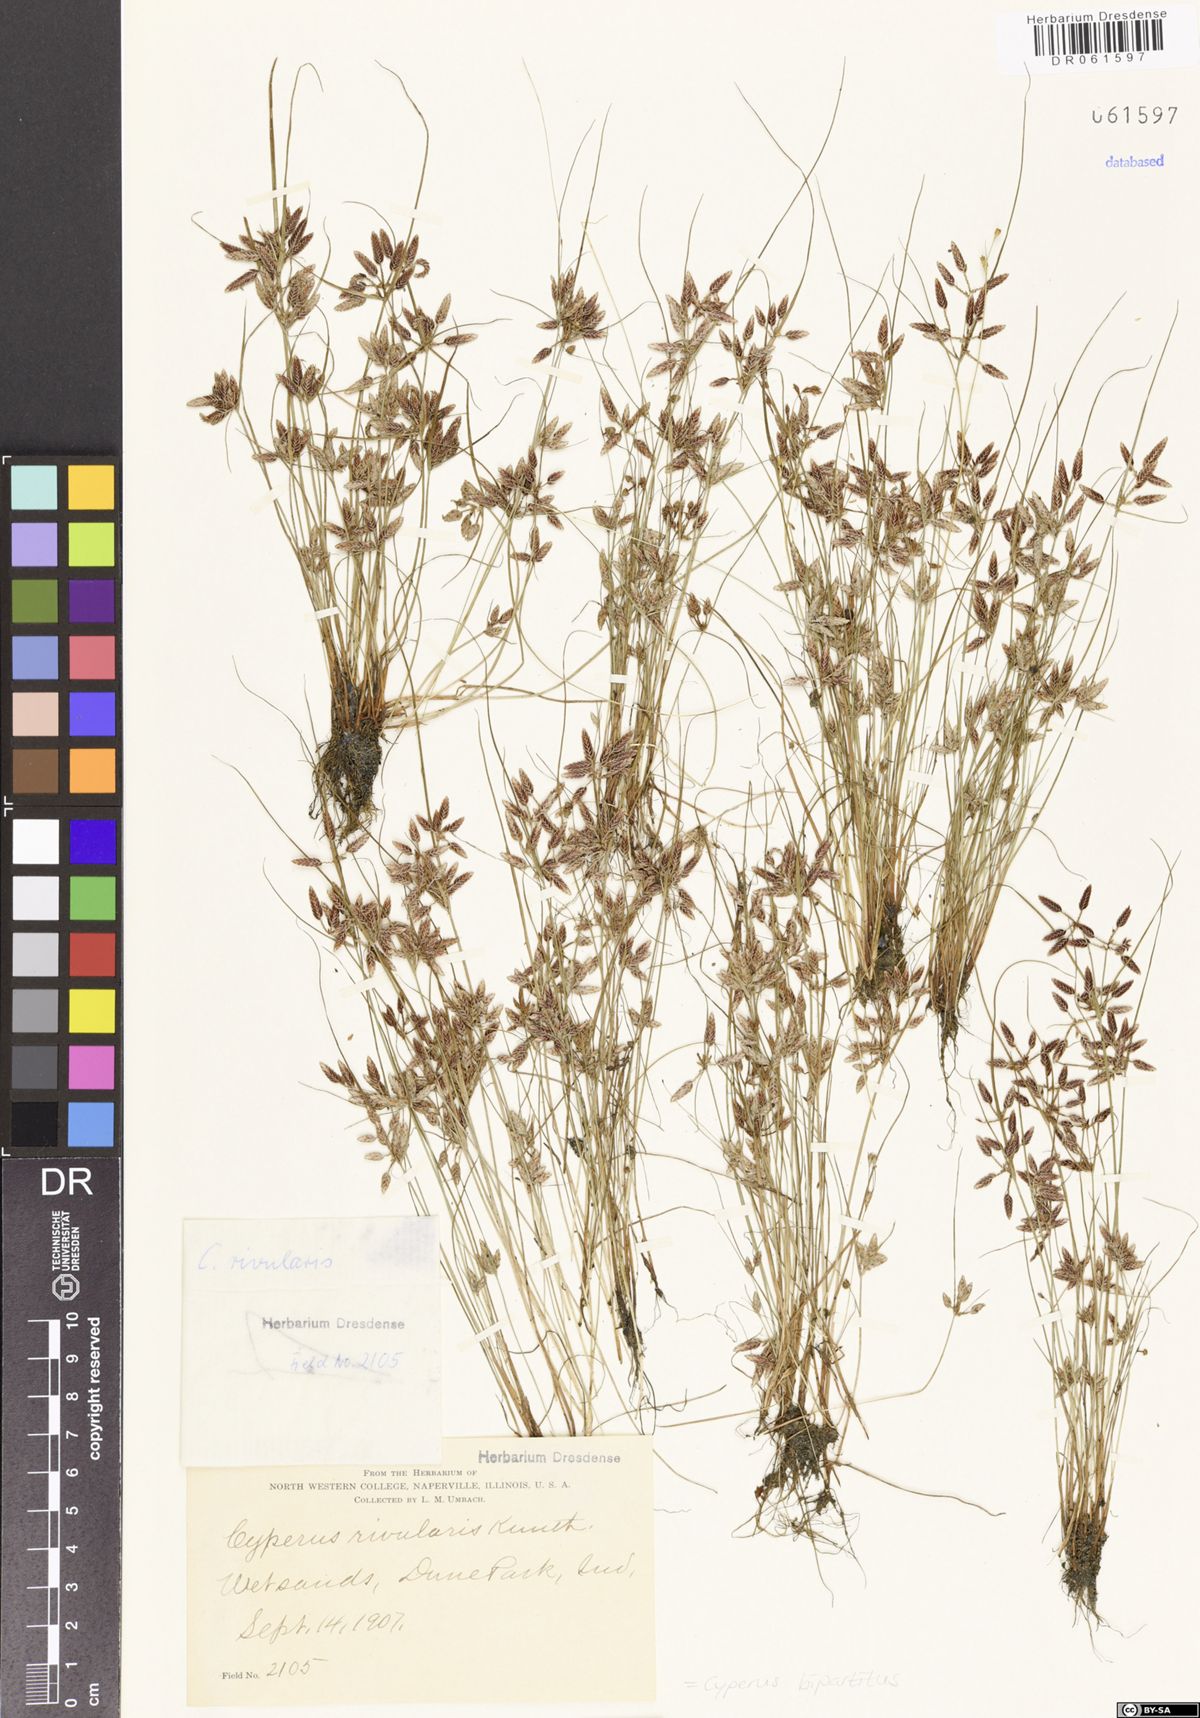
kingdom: Plantae
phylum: Tracheophyta
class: Liliopsida
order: Poales
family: Cyperaceae
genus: Cyperus
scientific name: Cyperus bipartitus
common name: Brook flatsedge
